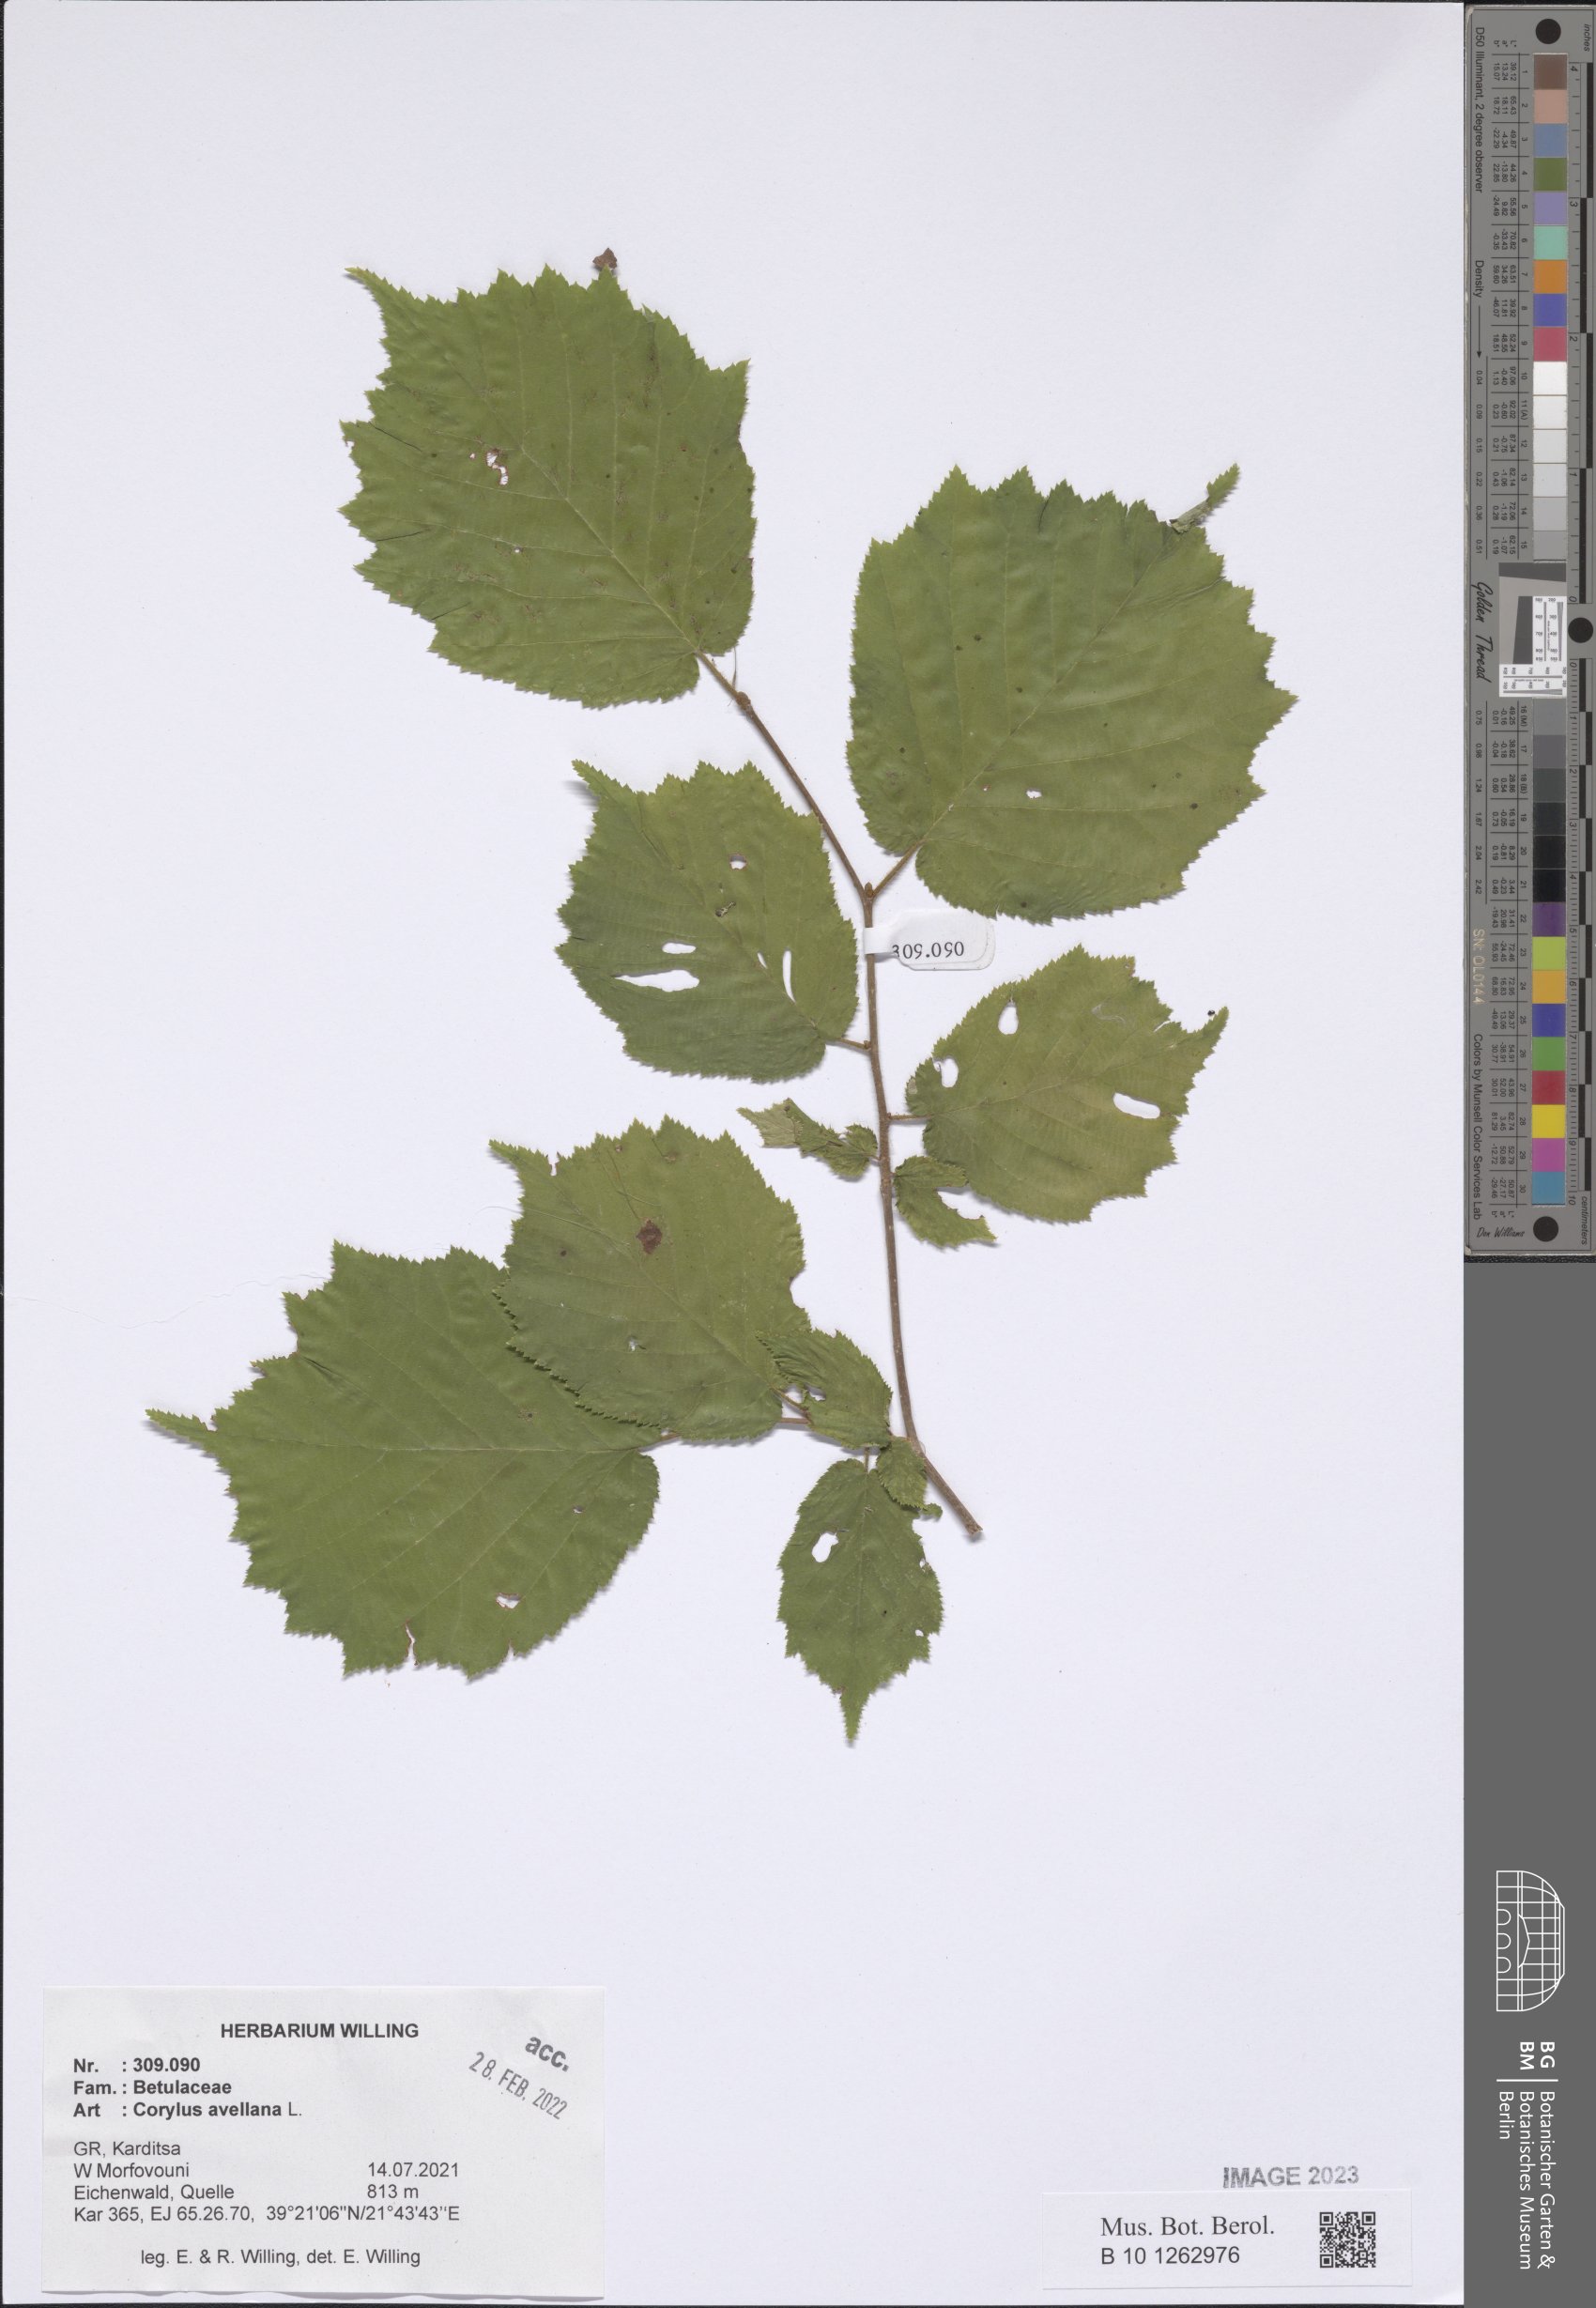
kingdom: Plantae
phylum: Tracheophyta
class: Magnoliopsida
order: Fagales
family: Betulaceae
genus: Corylus
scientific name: Corylus avellana
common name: European hazel
